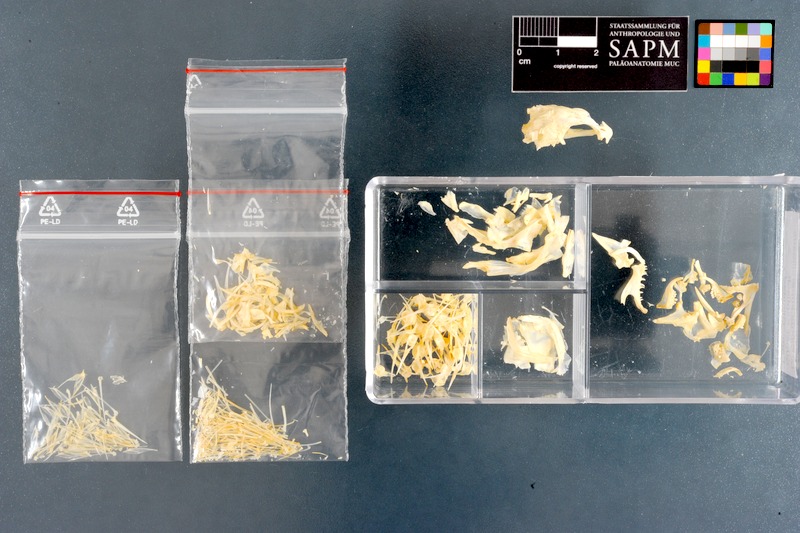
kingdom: Animalia
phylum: Chordata
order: Perciformes
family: Clinidae
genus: Clinus
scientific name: Clinus superciliosus
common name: Super klipfish
